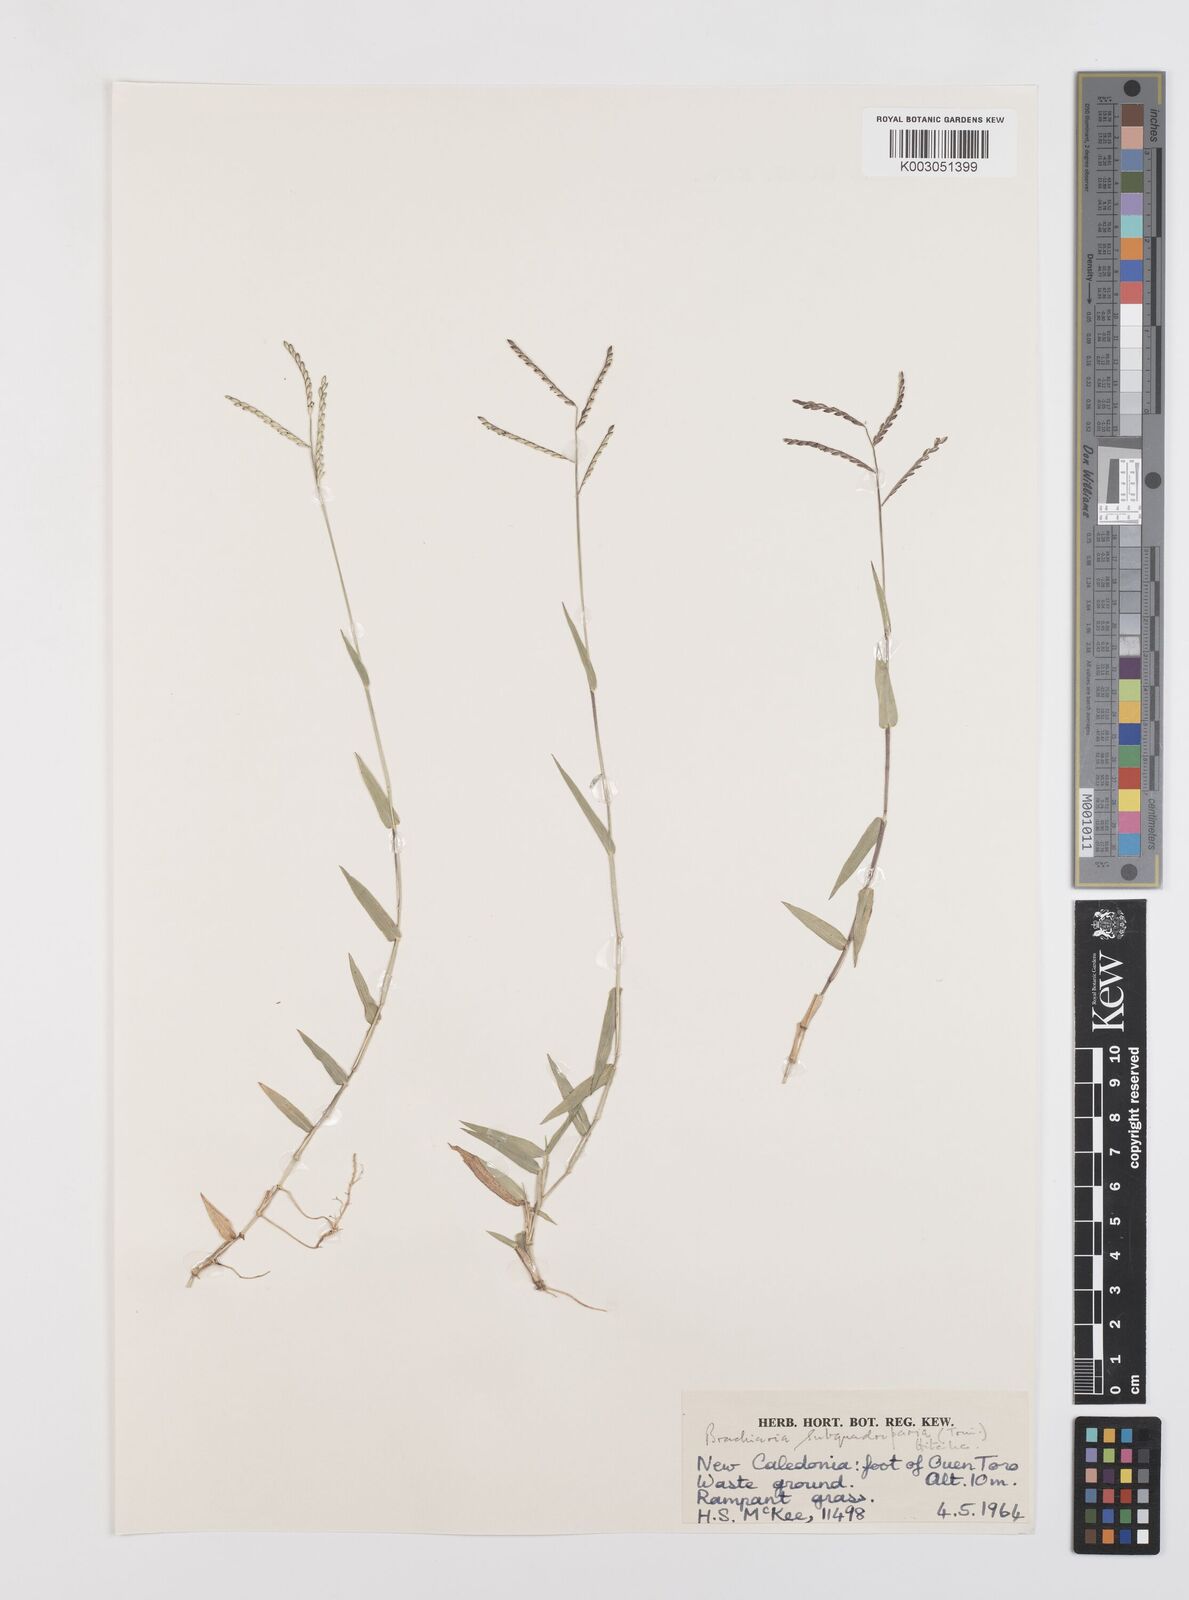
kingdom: Plantae
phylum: Tracheophyta
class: Liliopsida
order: Poales
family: Poaceae
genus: Urochloa
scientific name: Urochloa subquadripara
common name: Armgrass millet
